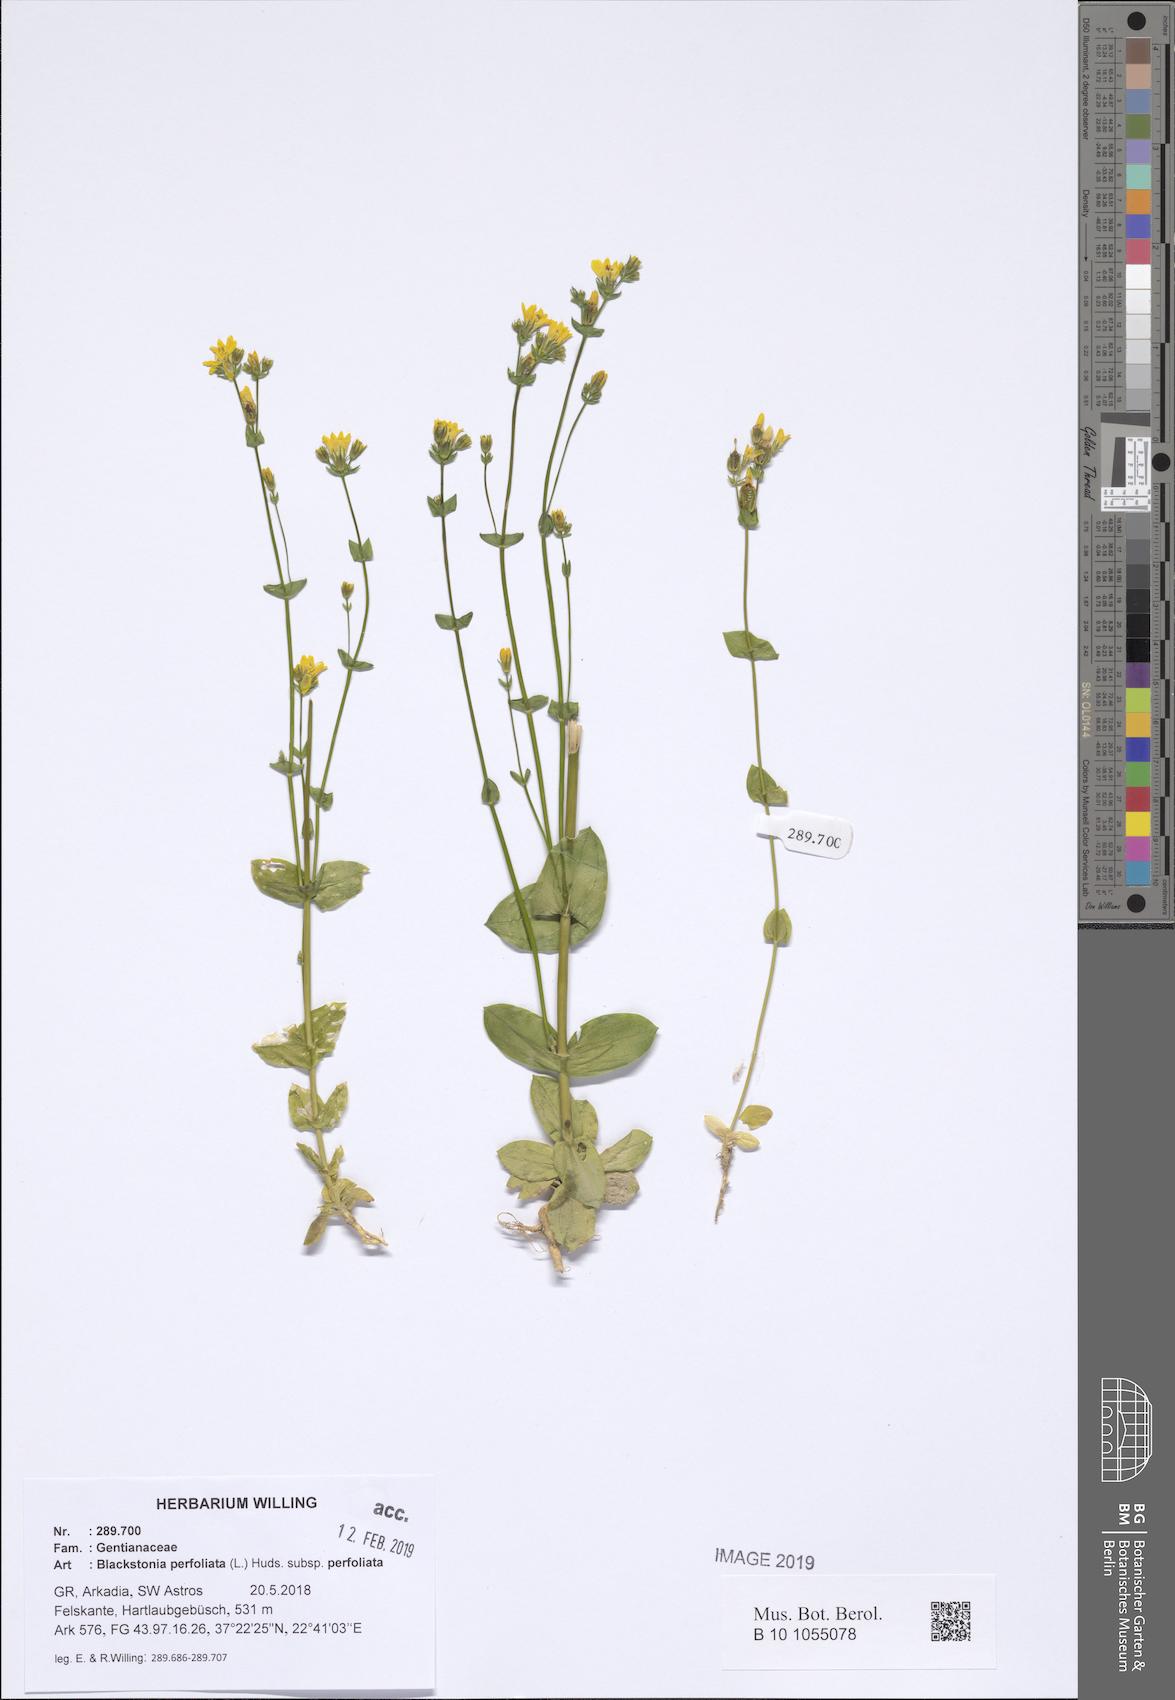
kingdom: Plantae
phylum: Tracheophyta
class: Magnoliopsida
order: Gentianales
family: Gentianaceae
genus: Blackstonia
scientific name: Blackstonia perfoliata
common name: Yellow-wort
